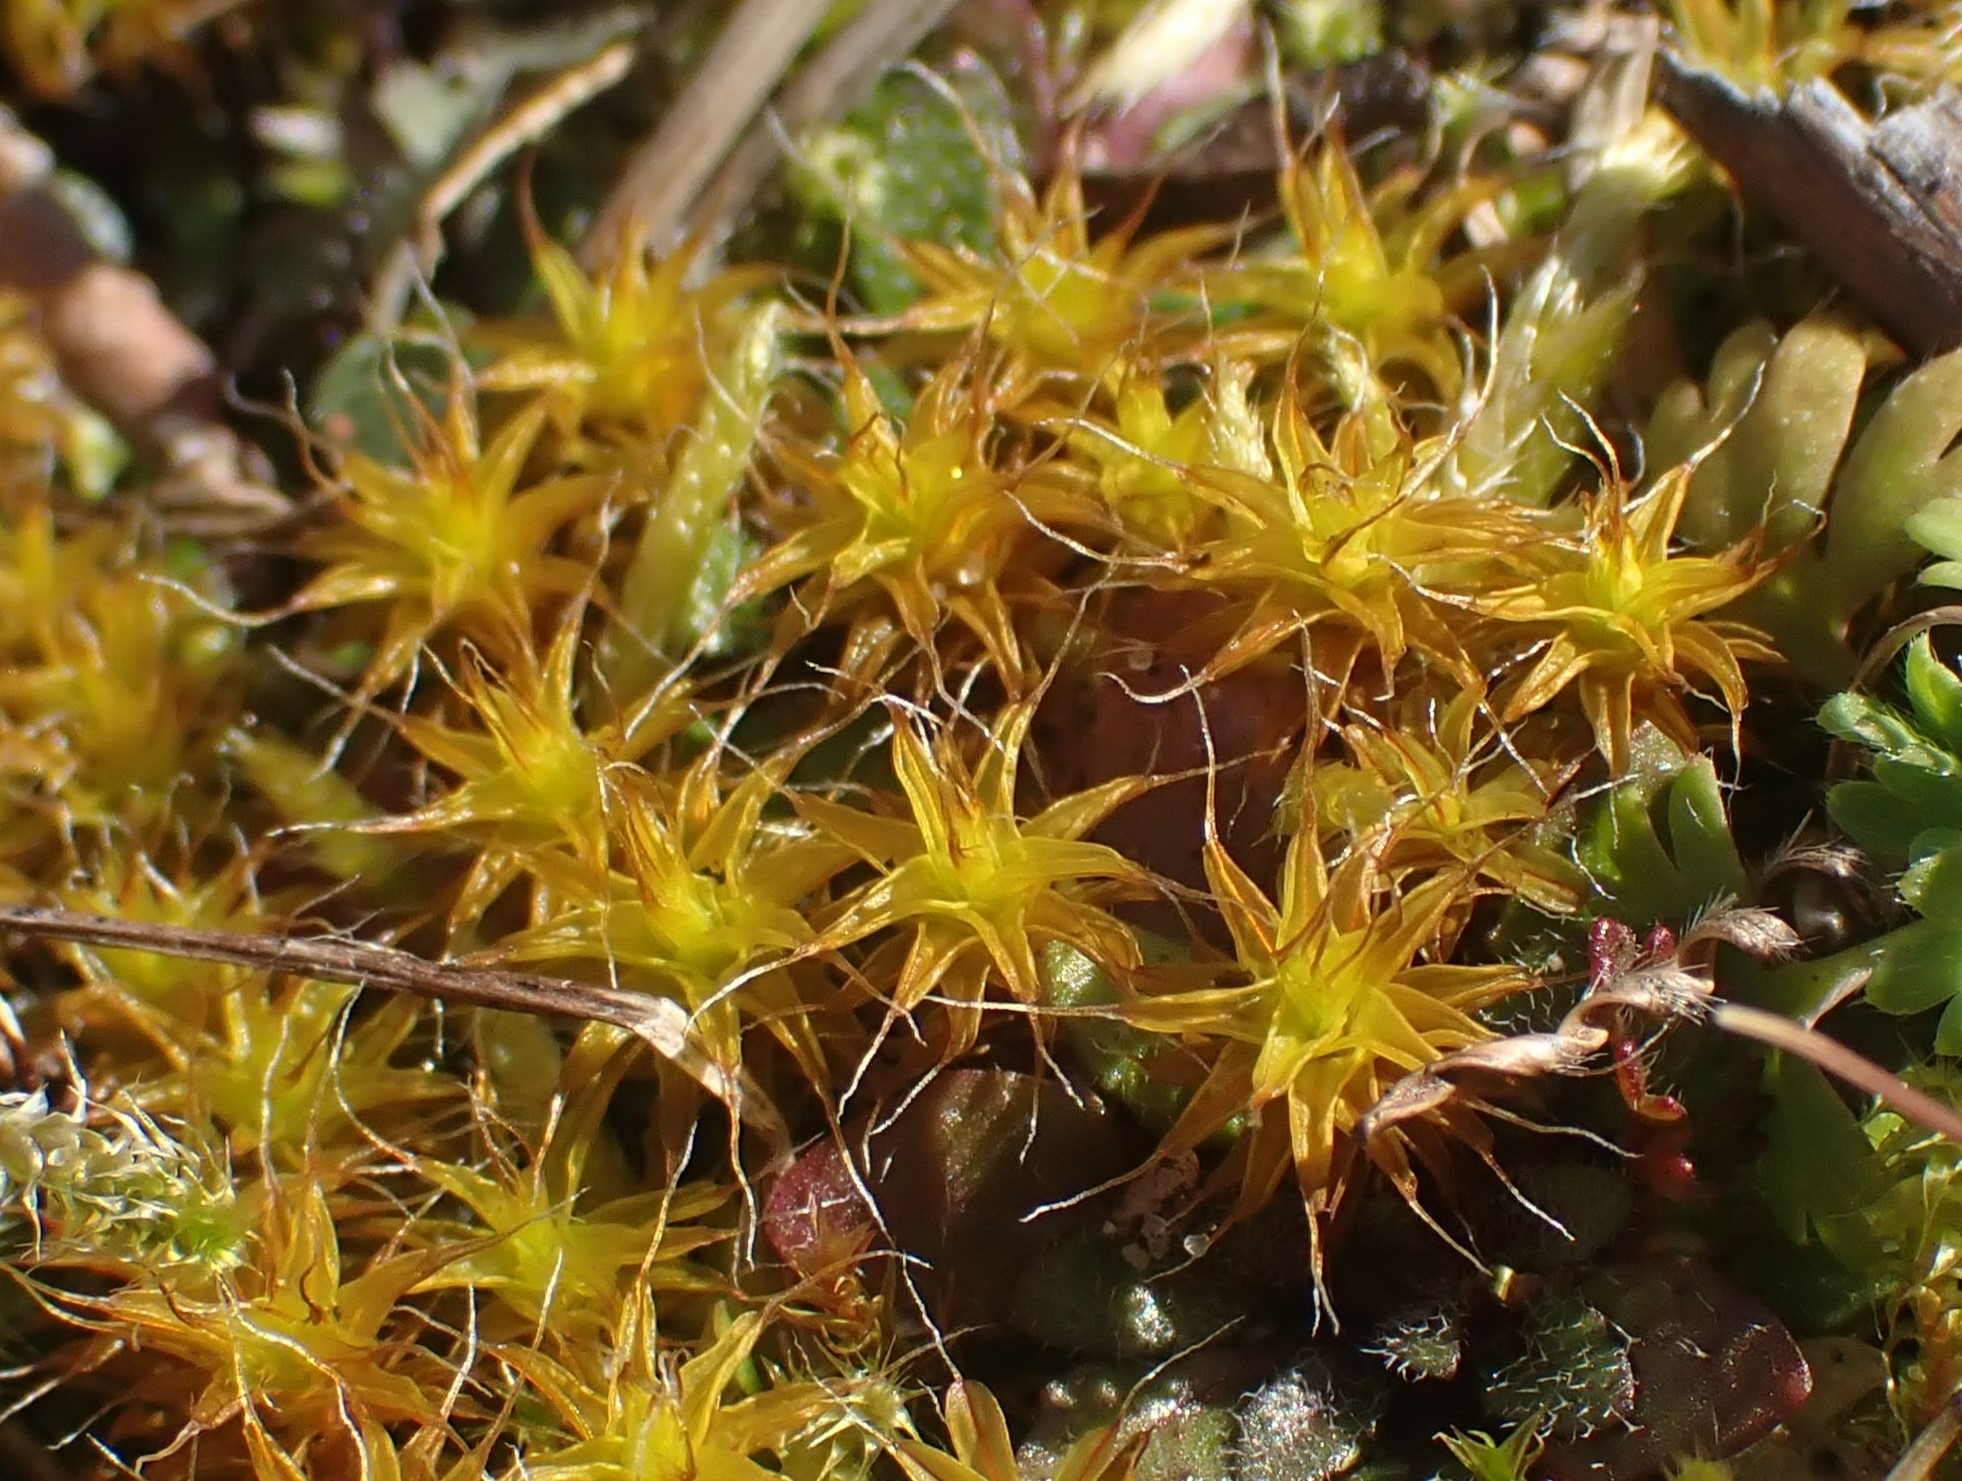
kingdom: Plantae
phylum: Bryophyta
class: Bryopsida
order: Pottiales
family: Pottiaceae
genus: Syntrichia
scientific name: Syntrichia ruralis
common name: Spidsbladet hårstjerne
